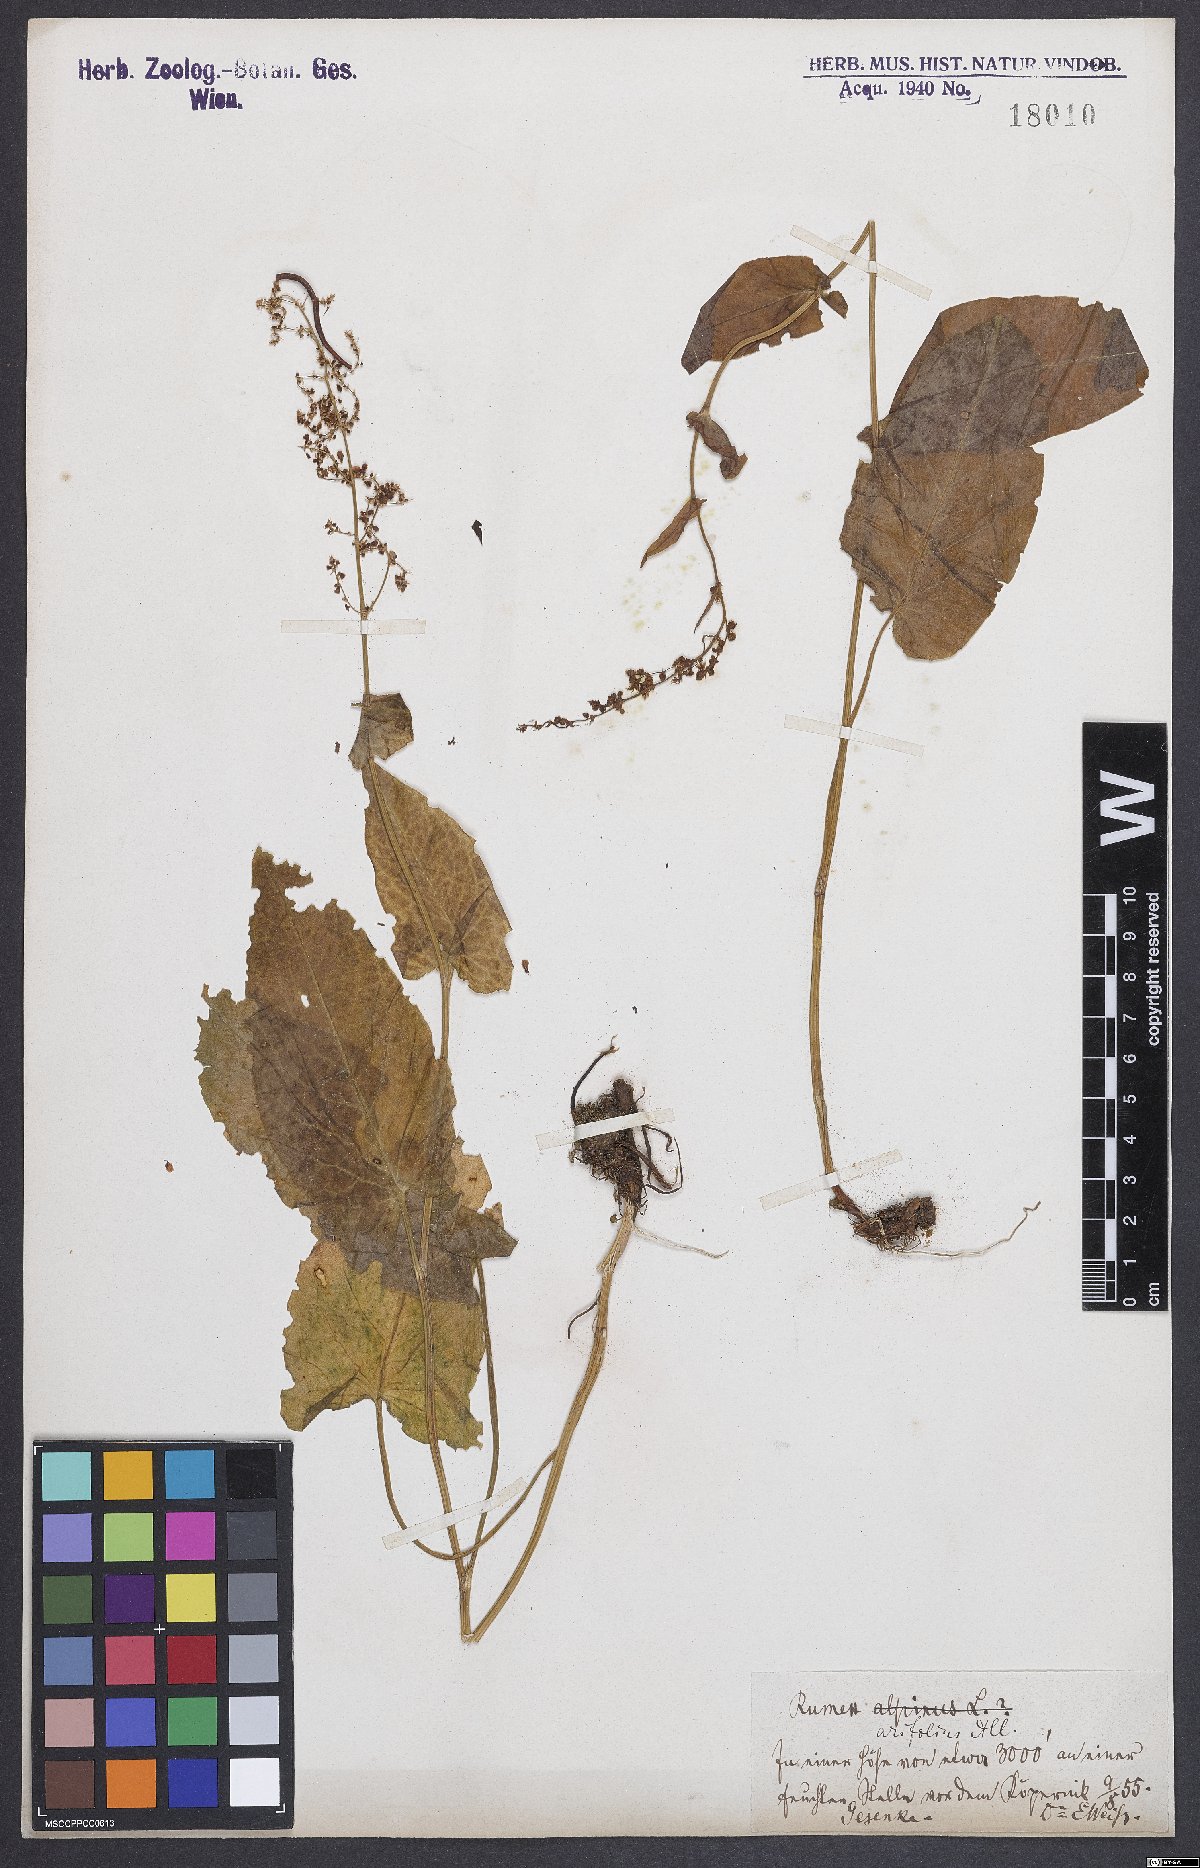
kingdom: Plantae
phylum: Tracheophyta
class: Magnoliopsida
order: Caryophyllales
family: Polygonaceae
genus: Rumex
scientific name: Rumex arifolius
